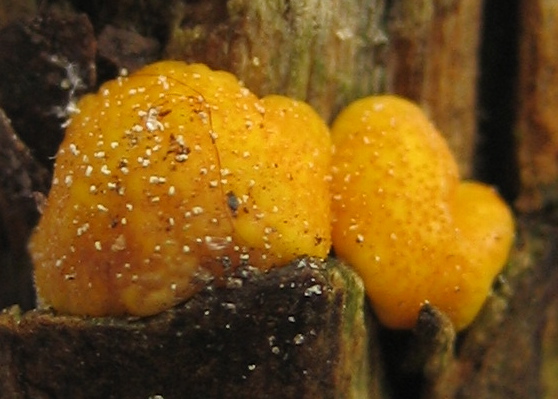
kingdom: Fungi
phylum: Ascomycota
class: Sordariomycetes
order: Hypocreales
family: Hypocreaceae
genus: Trichoderma
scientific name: Trichoderma
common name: kødkerne
